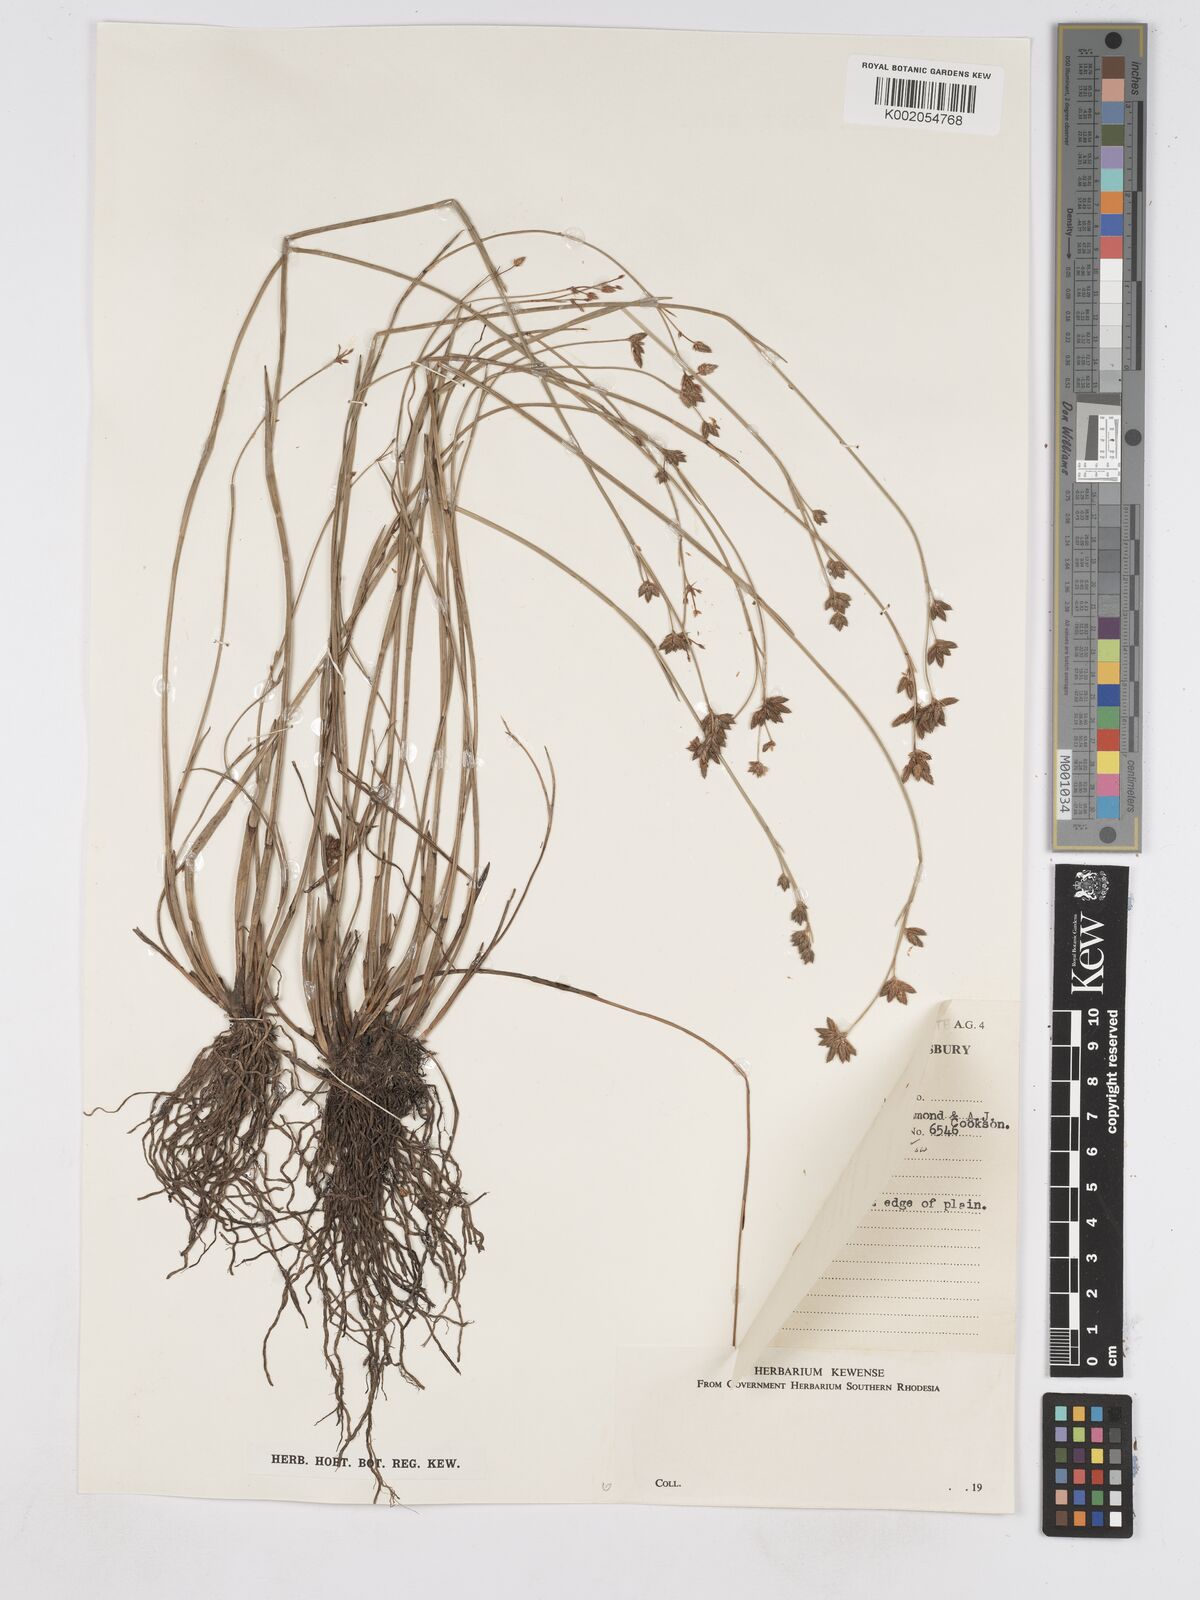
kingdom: Plantae
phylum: Tracheophyta
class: Liliopsida
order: Poales
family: Cyperaceae
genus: Fuirena
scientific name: Fuirena stricta
